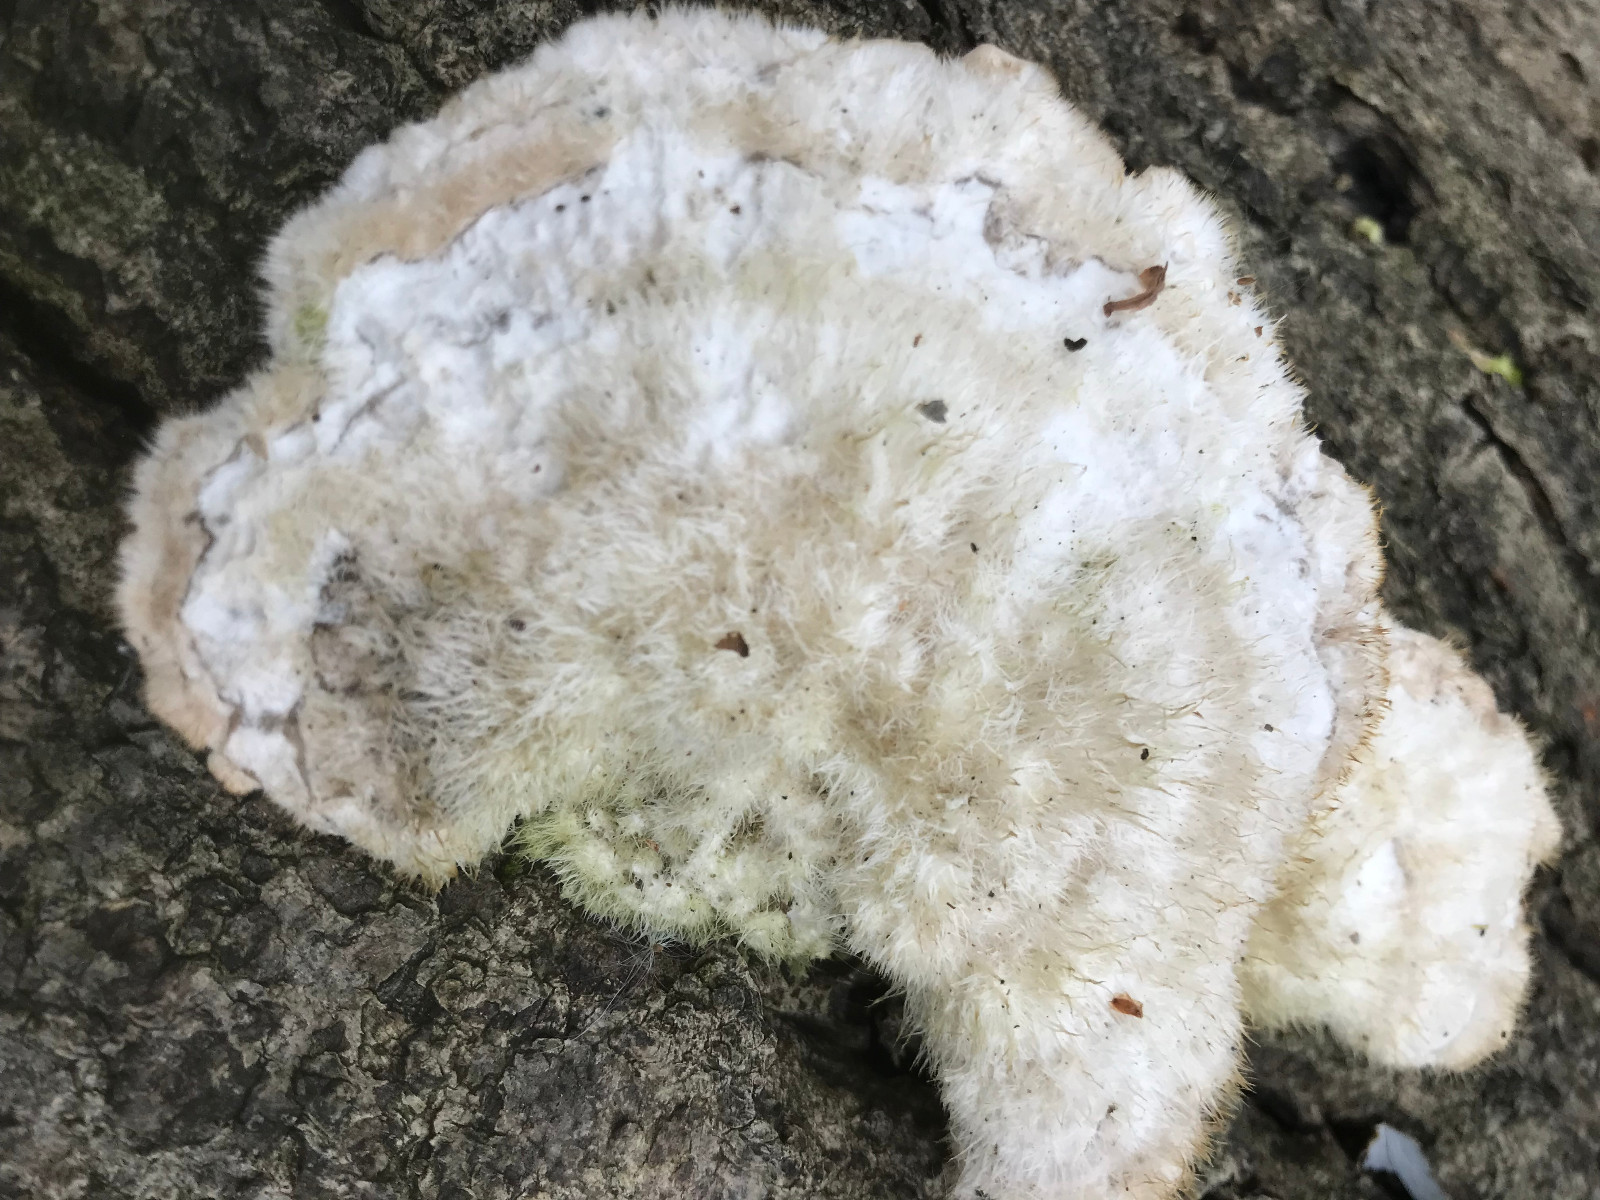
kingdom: Fungi
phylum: Basidiomycota
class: Agaricomycetes
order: Polyporales
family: Polyporaceae
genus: Trametes
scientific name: Trametes hirsuta
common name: håret læderporesvamp
